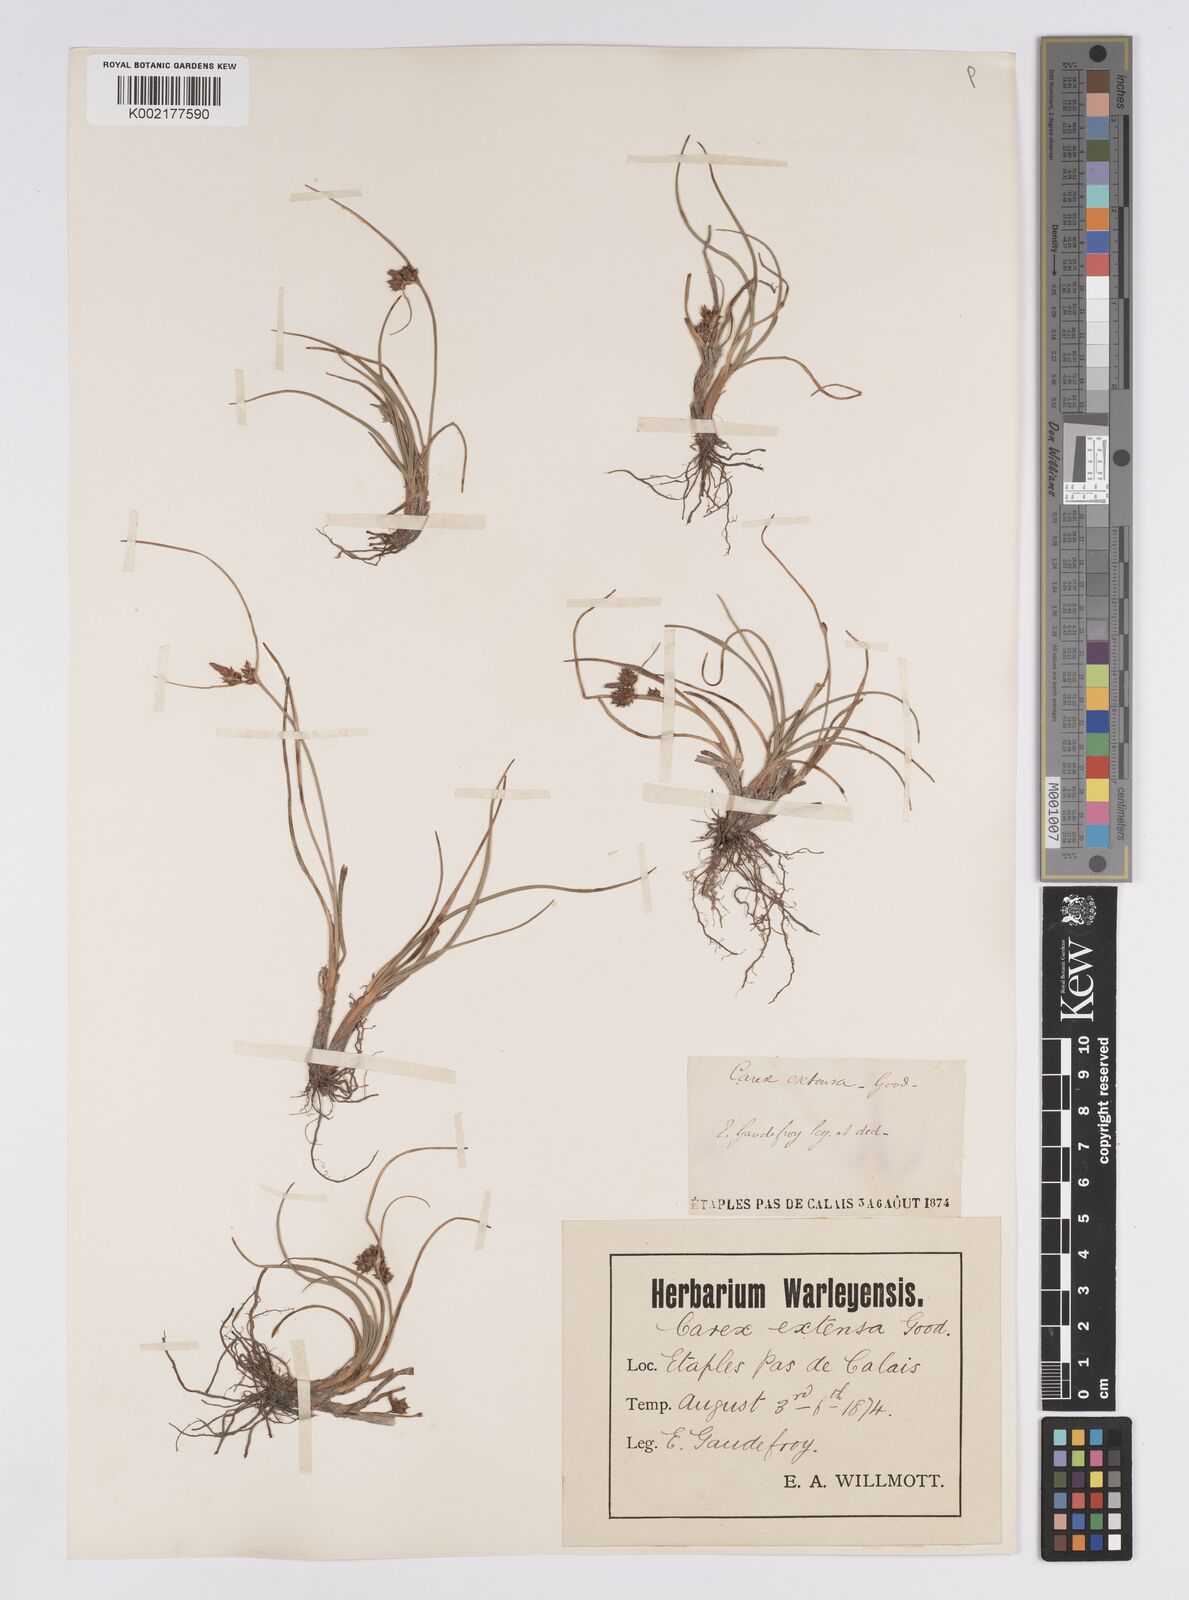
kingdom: Plantae
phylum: Tracheophyta
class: Liliopsida
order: Poales
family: Cyperaceae
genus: Carex
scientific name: Carex extensa
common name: Long-bracted sedge
